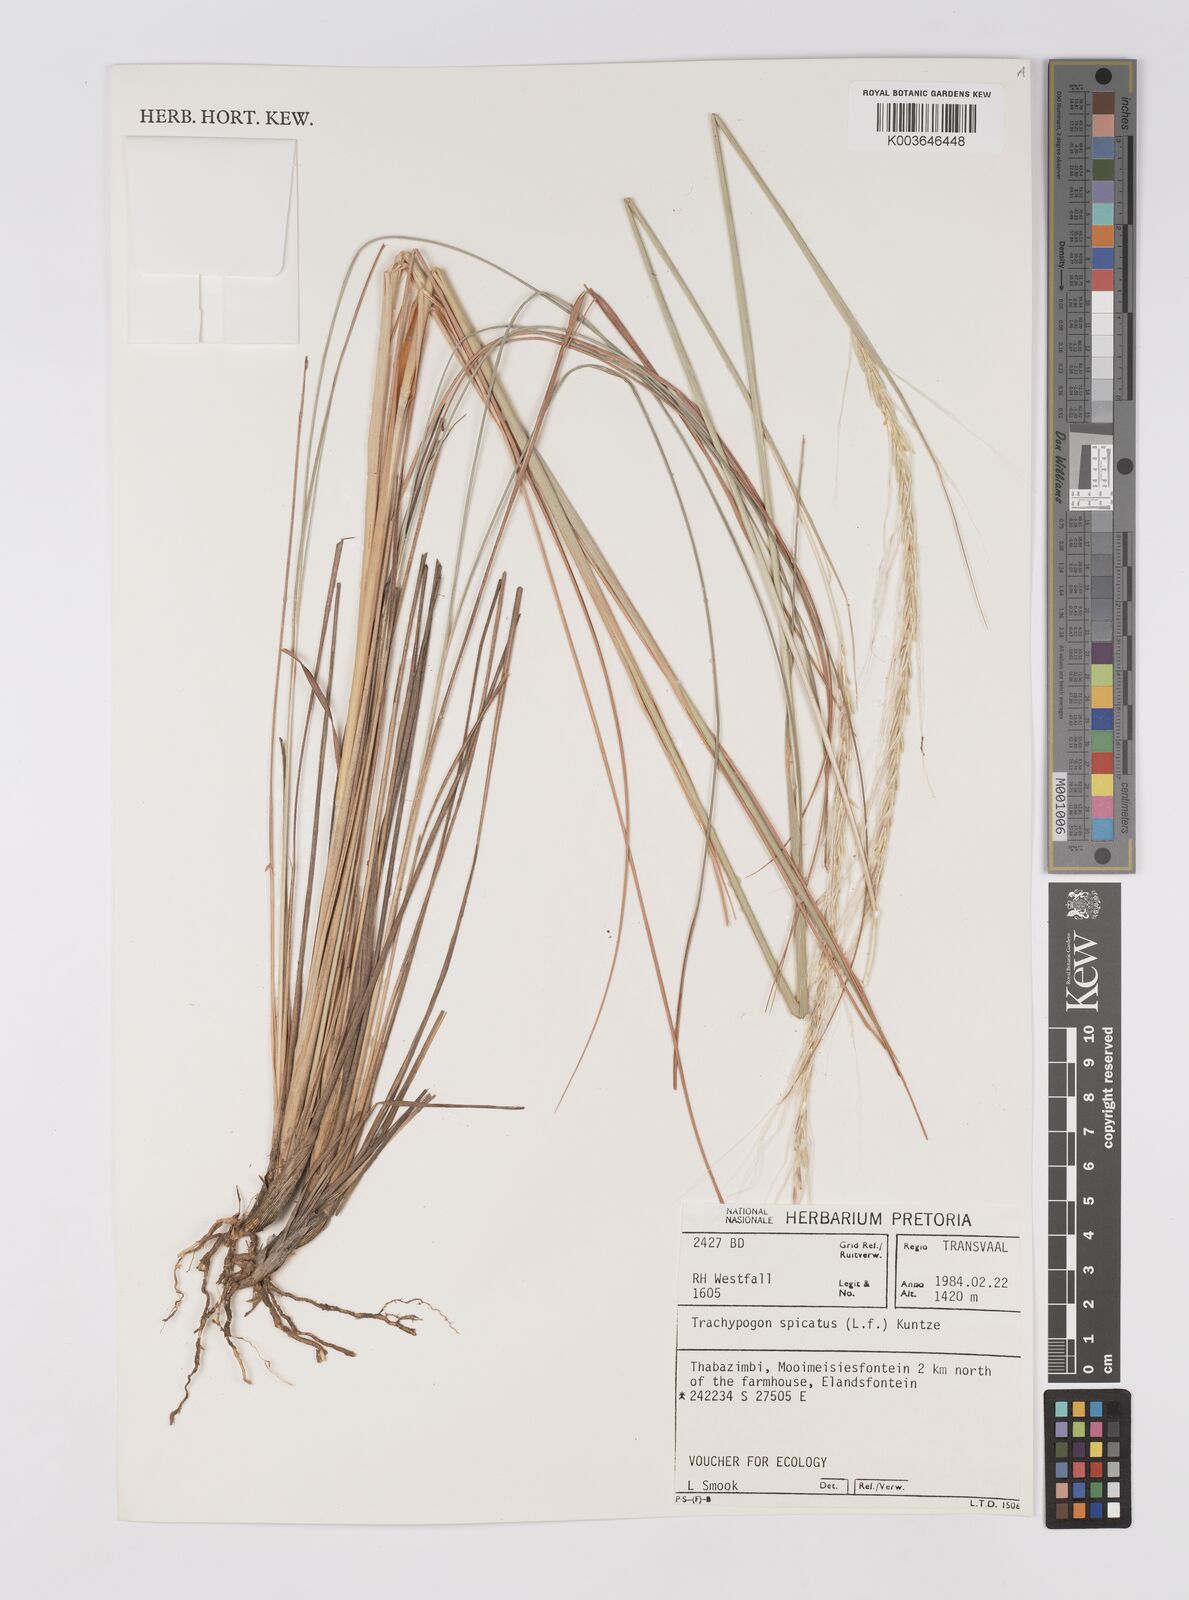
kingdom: Plantae
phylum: Tracheophyta
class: Liliopsida
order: Poales
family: Poaceae
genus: Trachypogon
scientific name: Trachypogon spicatus
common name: Crinkle-awn
